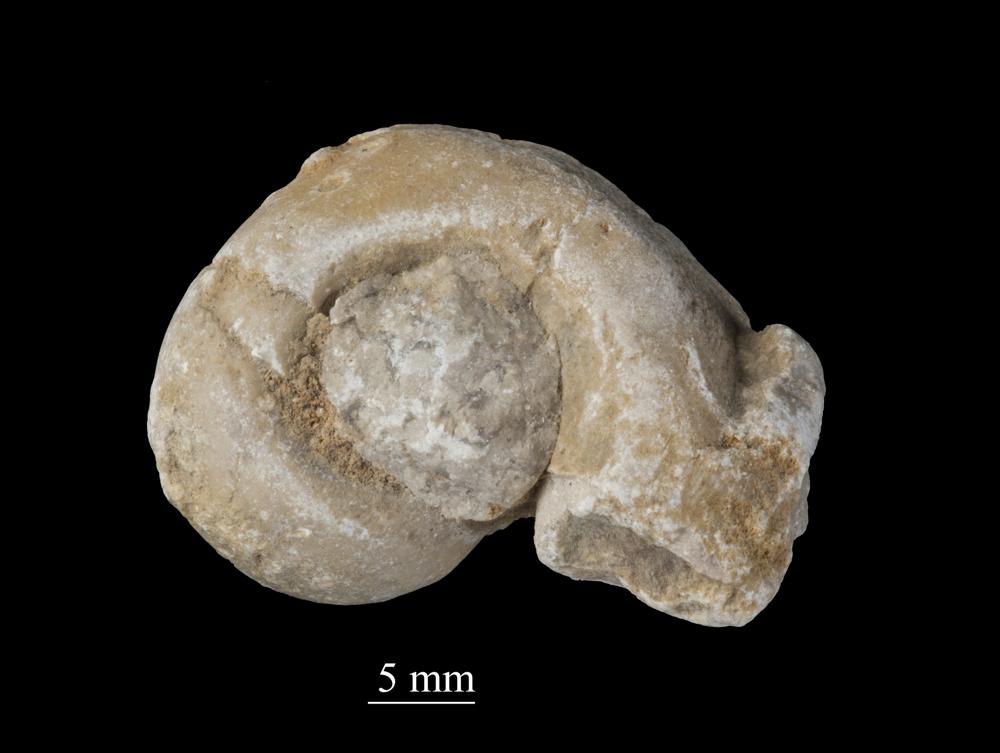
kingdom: Animalia
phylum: Mollusca
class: Gastropoda
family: Bellerophontidae
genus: Bellerophon
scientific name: Bellerophon
